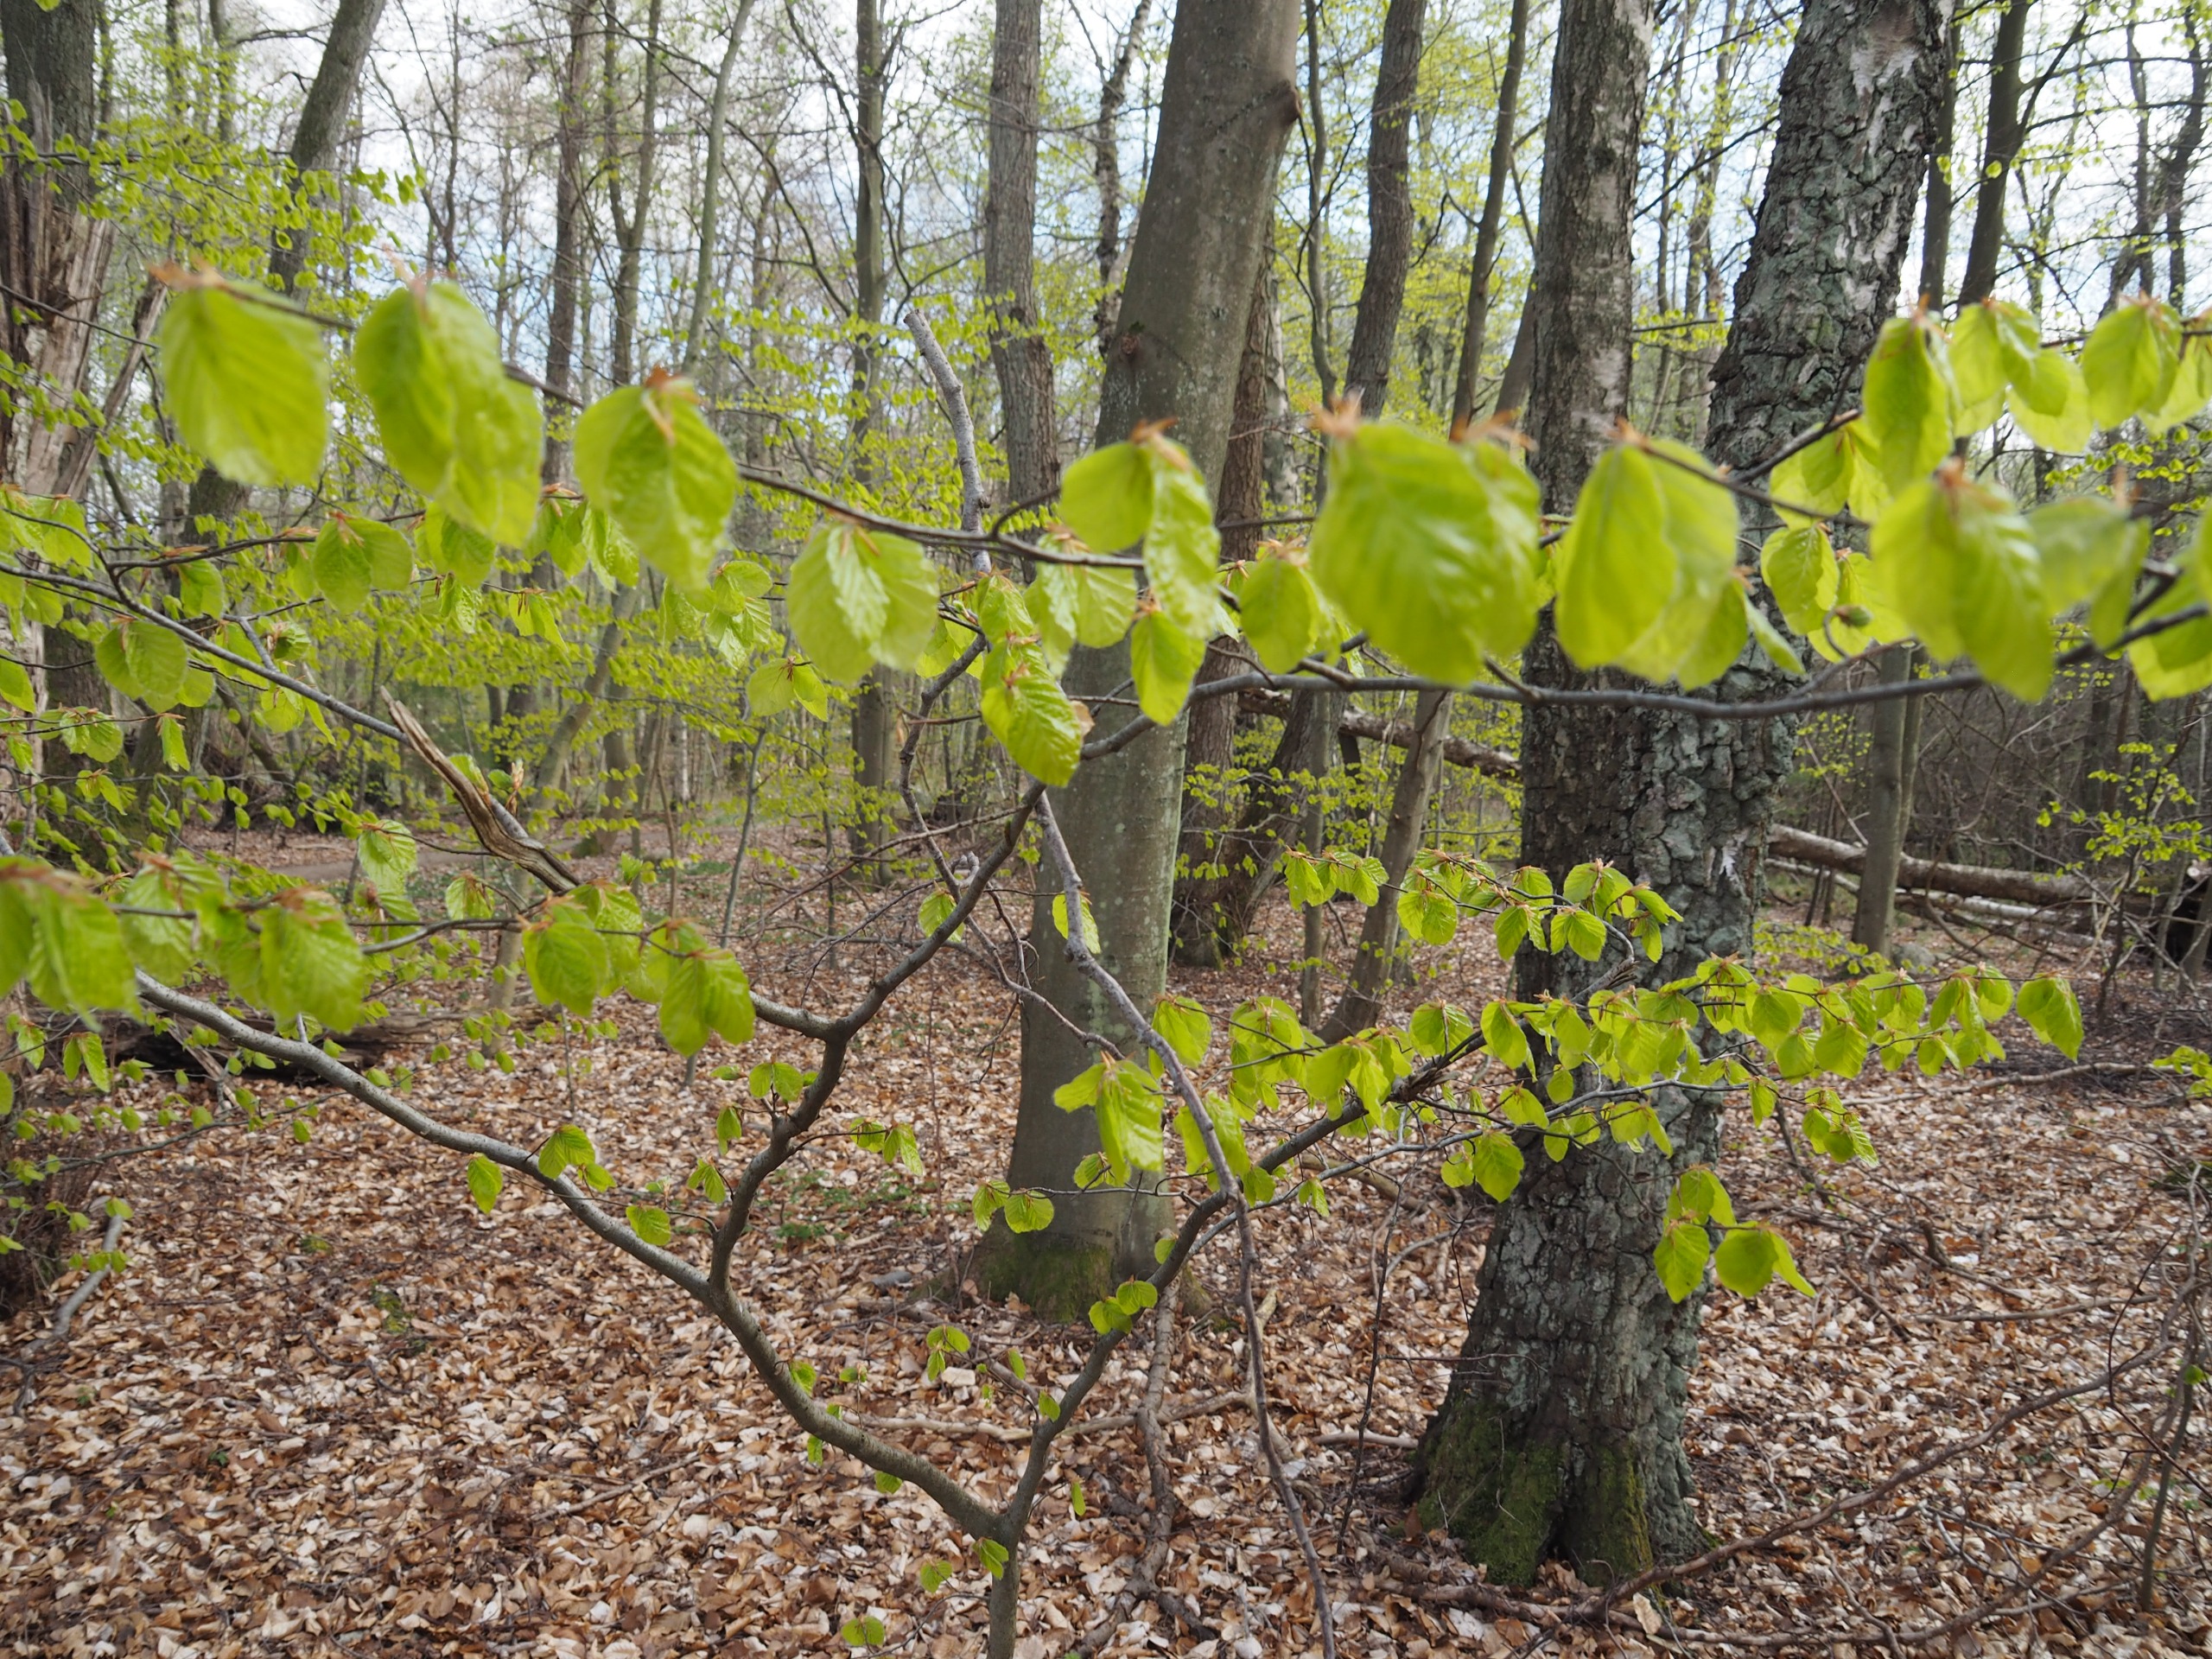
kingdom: Plantae
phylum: Tracheophyta
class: Magnoliopsida
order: Fagales
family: Fagaceae
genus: Fagus
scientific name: Fagus sylvatica
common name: Bøg
